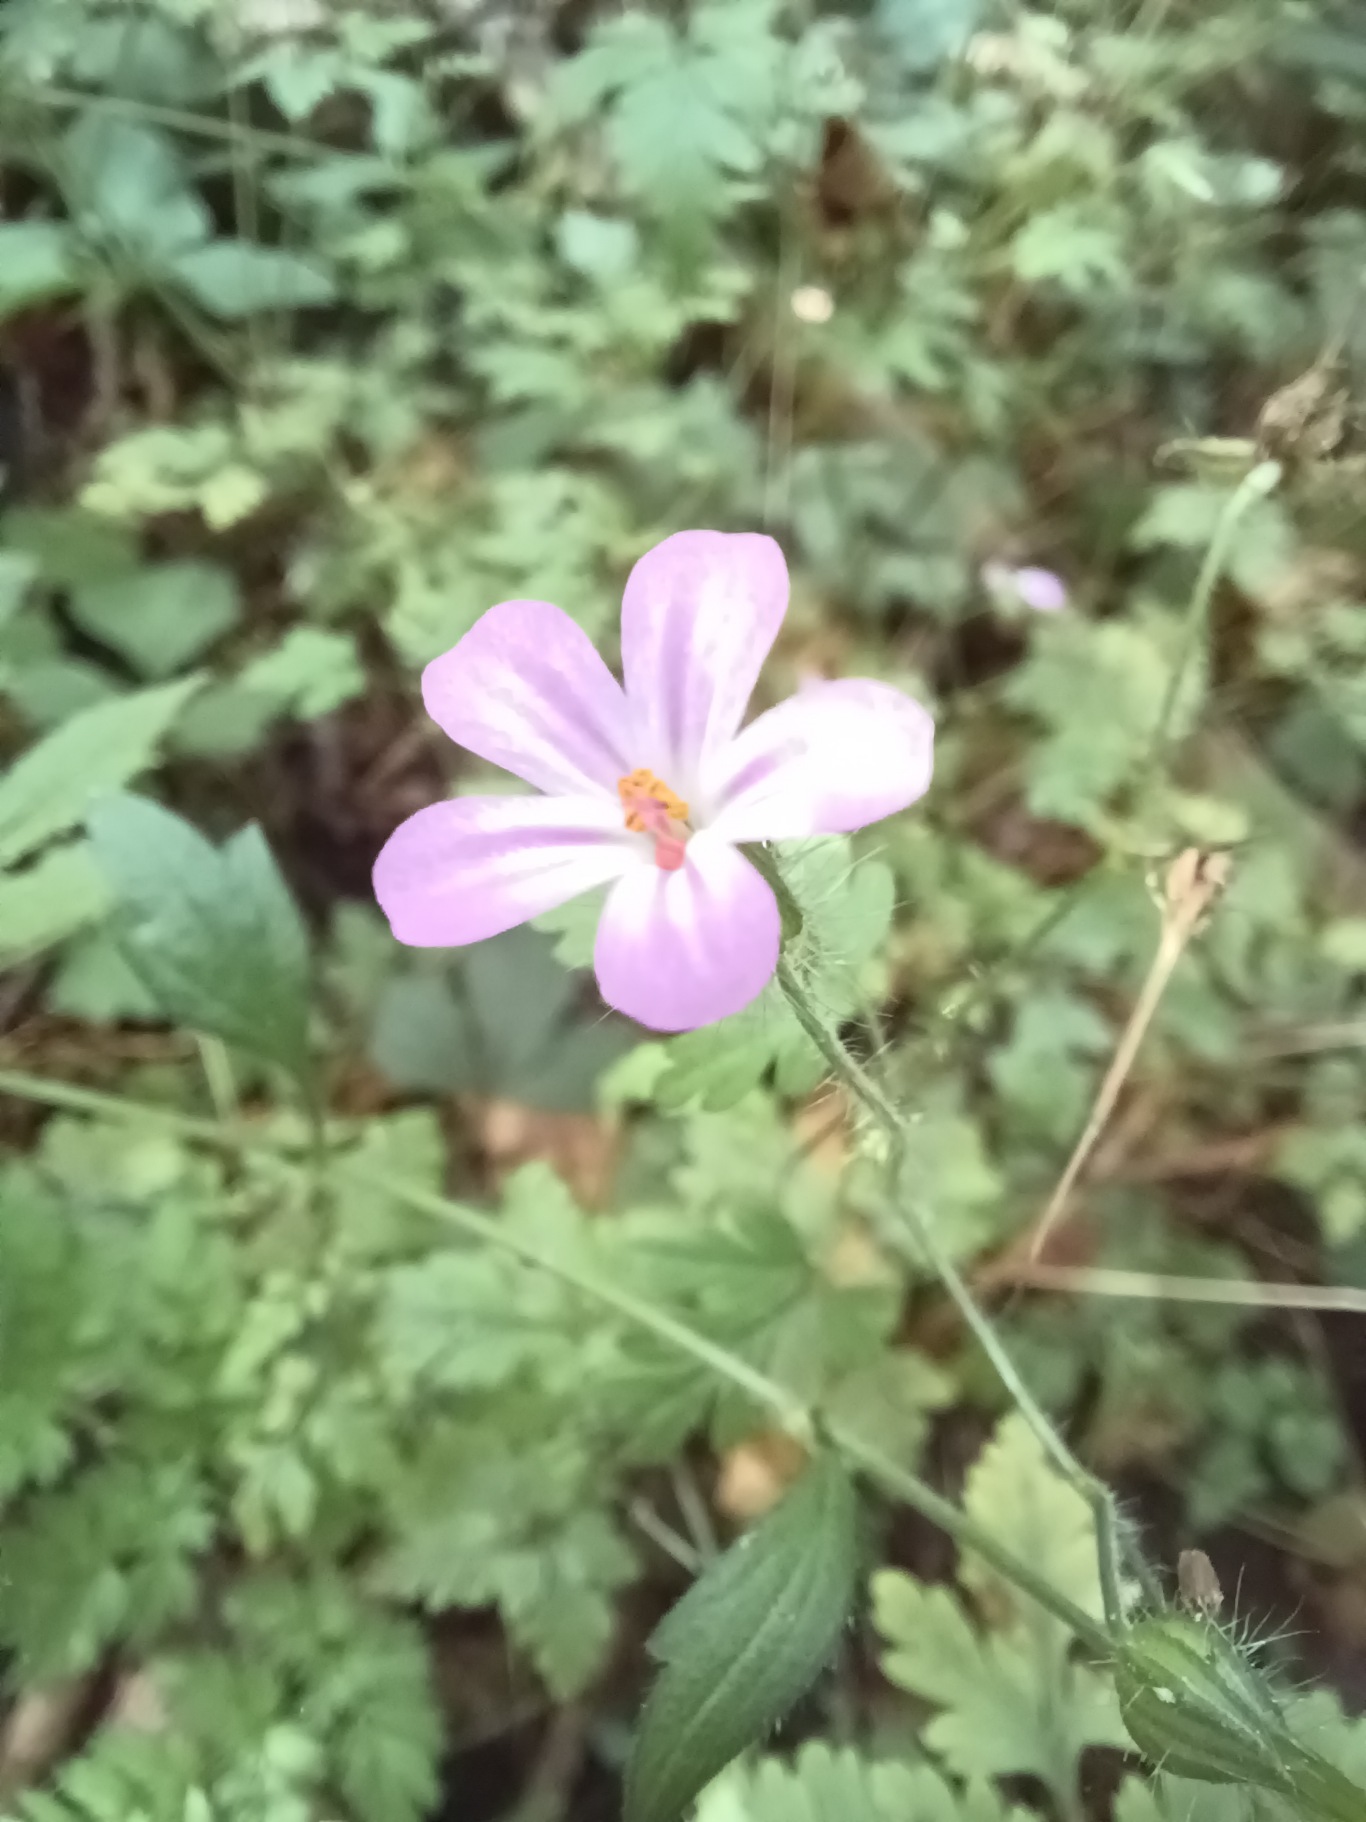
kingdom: Plantae
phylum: Tracheophyta
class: Magnoliopsida
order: Geraniales
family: Geraniaceae
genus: Geranium
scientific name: Geranium robertianum
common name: Stinkende storkenæb
